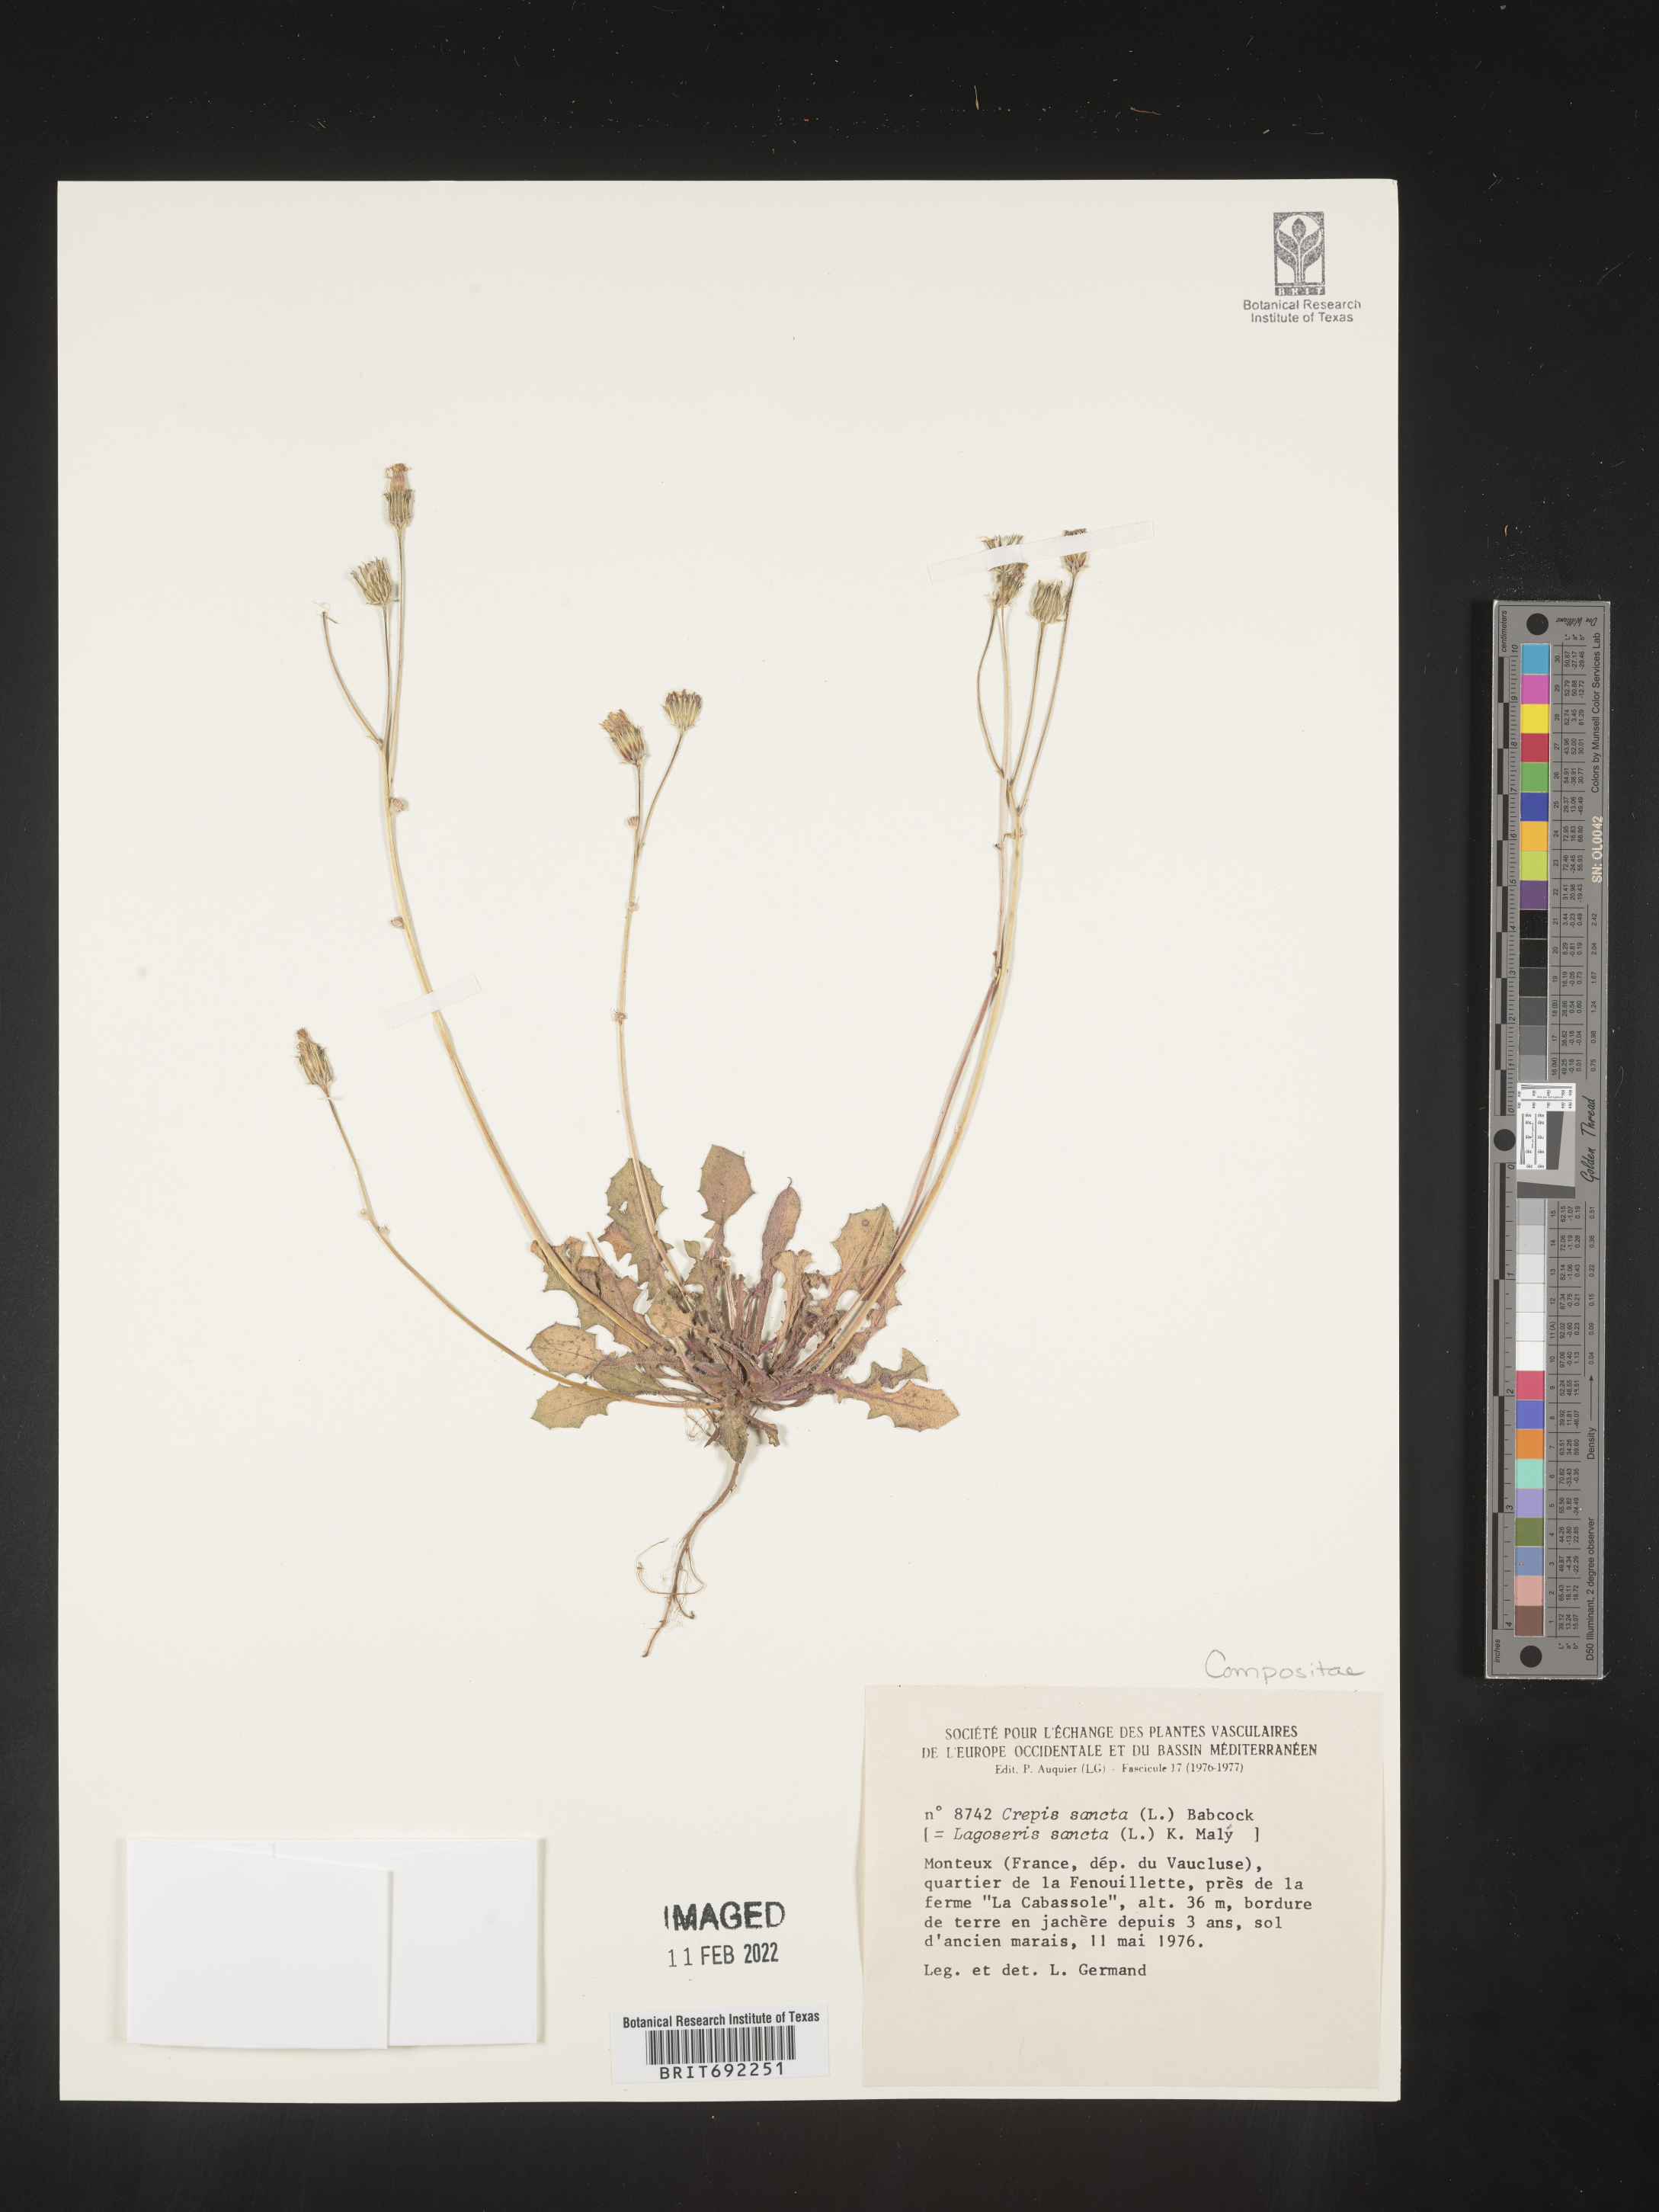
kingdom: Plantae
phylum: Tracheophyta
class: Magnoliopsida
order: Asterales
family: Asteraceae
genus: Crepis
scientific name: Crepis
